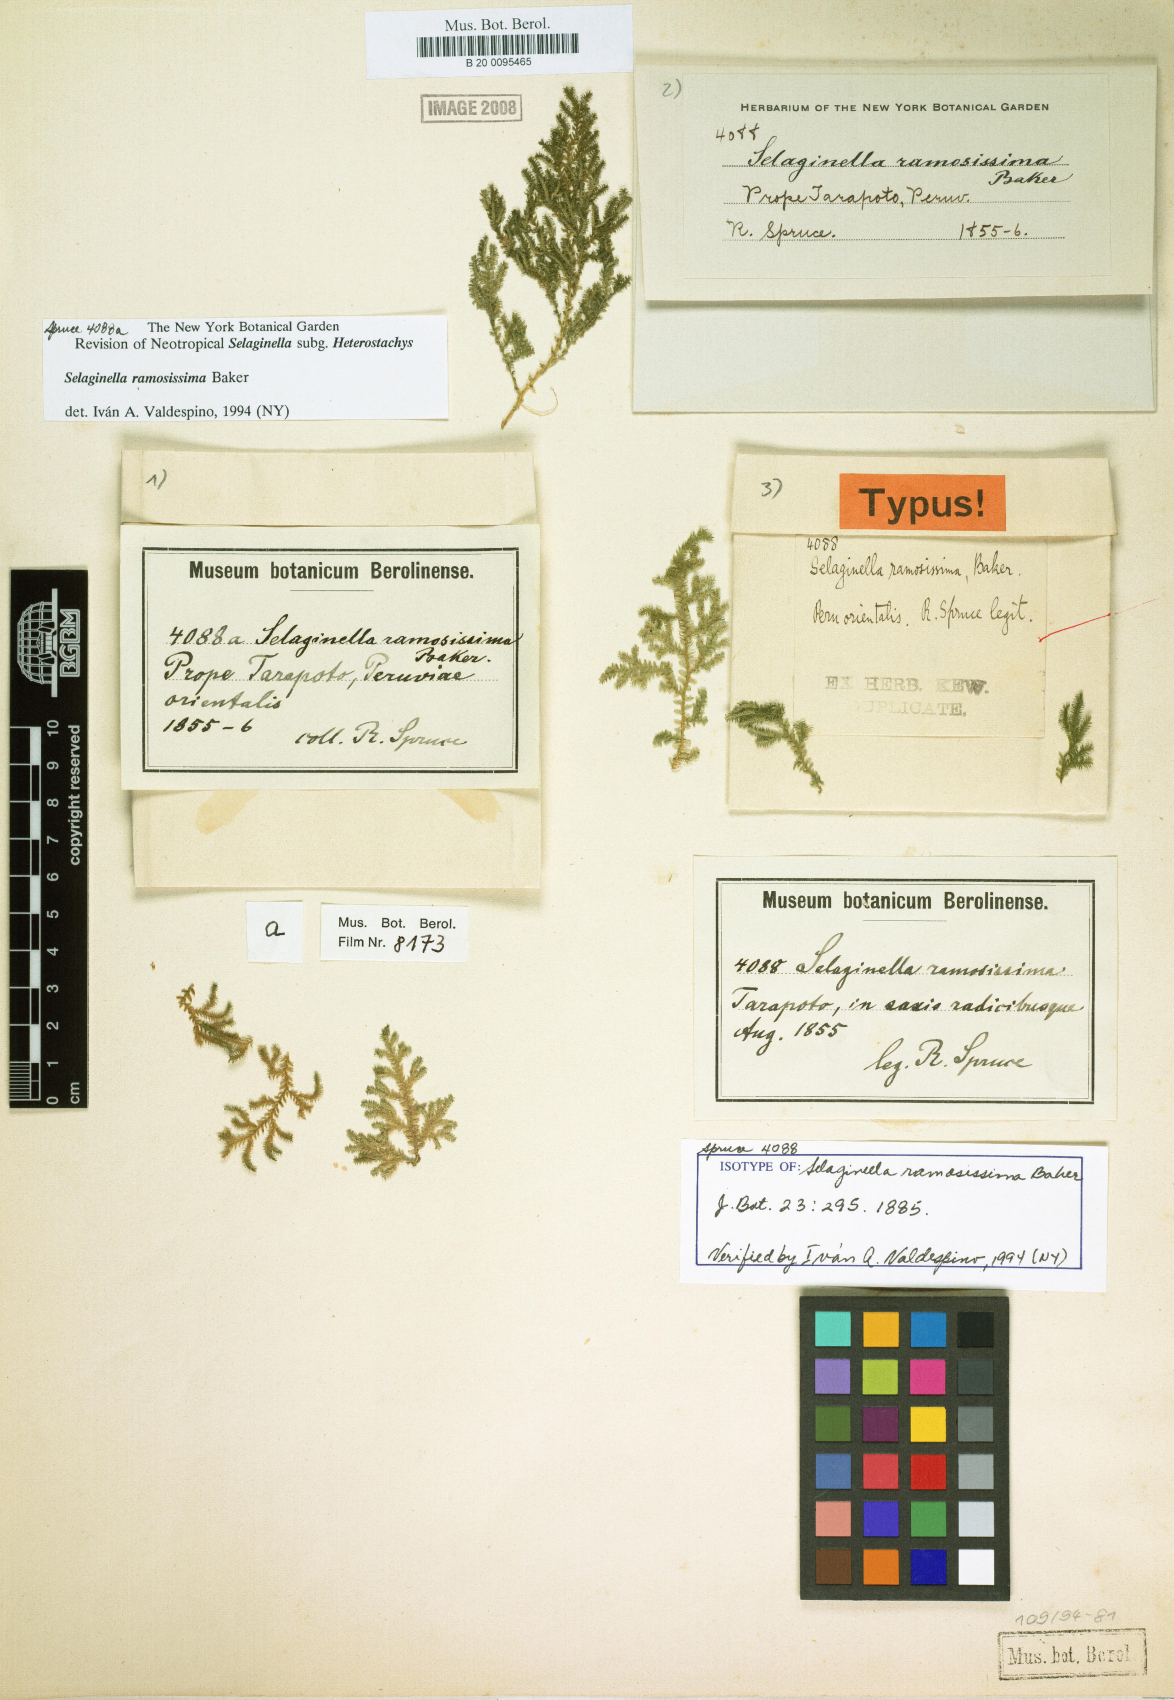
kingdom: Plantae
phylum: Tracheophyta
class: Lycopodiopsida
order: Selaginellales
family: Selaginellaceae
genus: Selaginella
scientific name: Selaginella ramosissima
